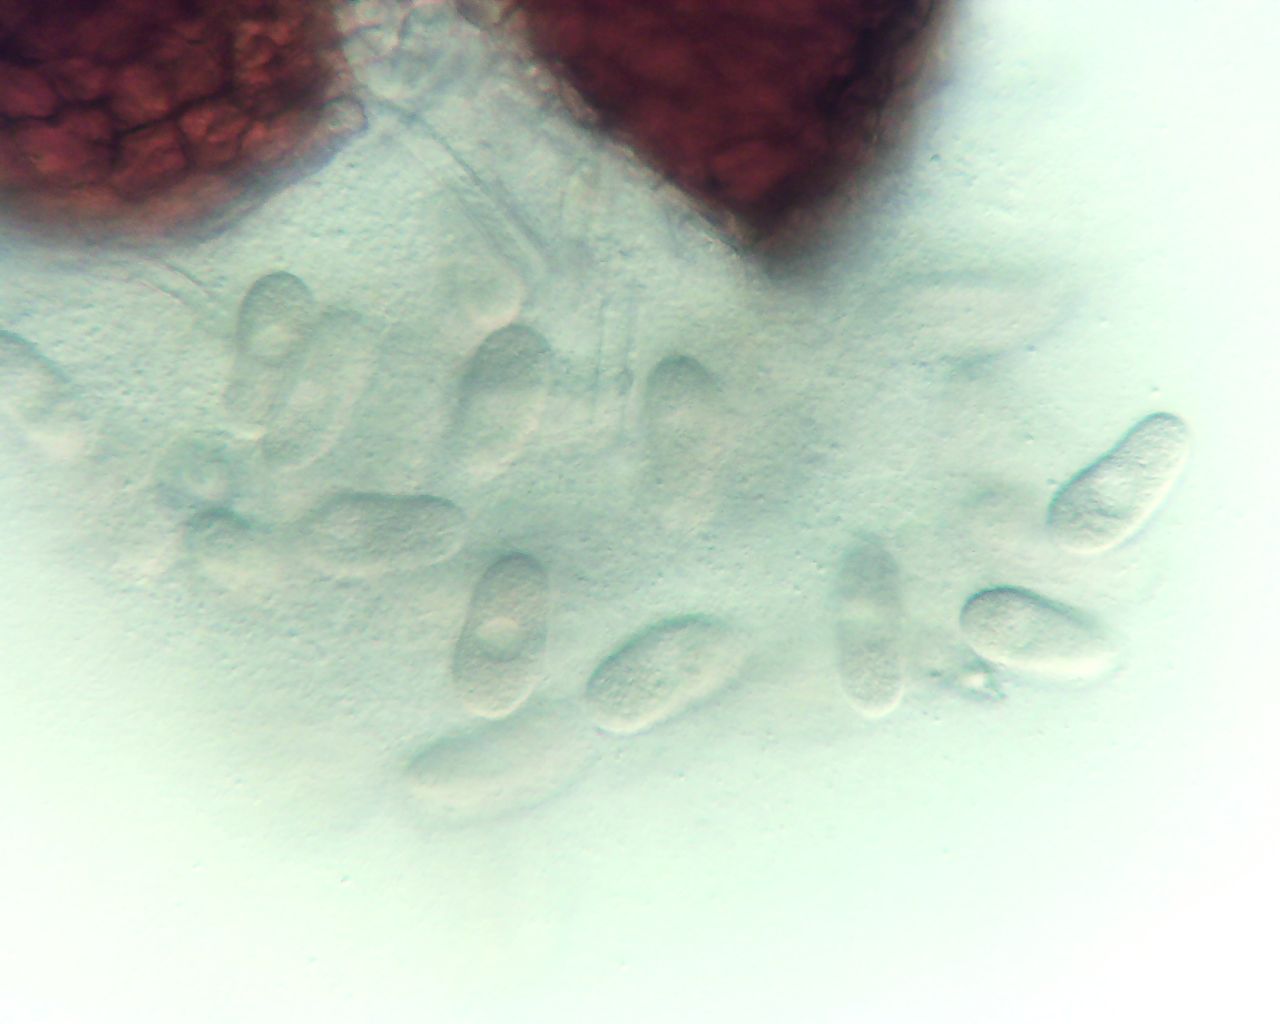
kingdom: Fungi
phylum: Ascomycota
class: Leotiomycetes
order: Helotiales
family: Erysiphaceae
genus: Erysiphe
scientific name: Erysiphe adunca
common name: pile-meldug
